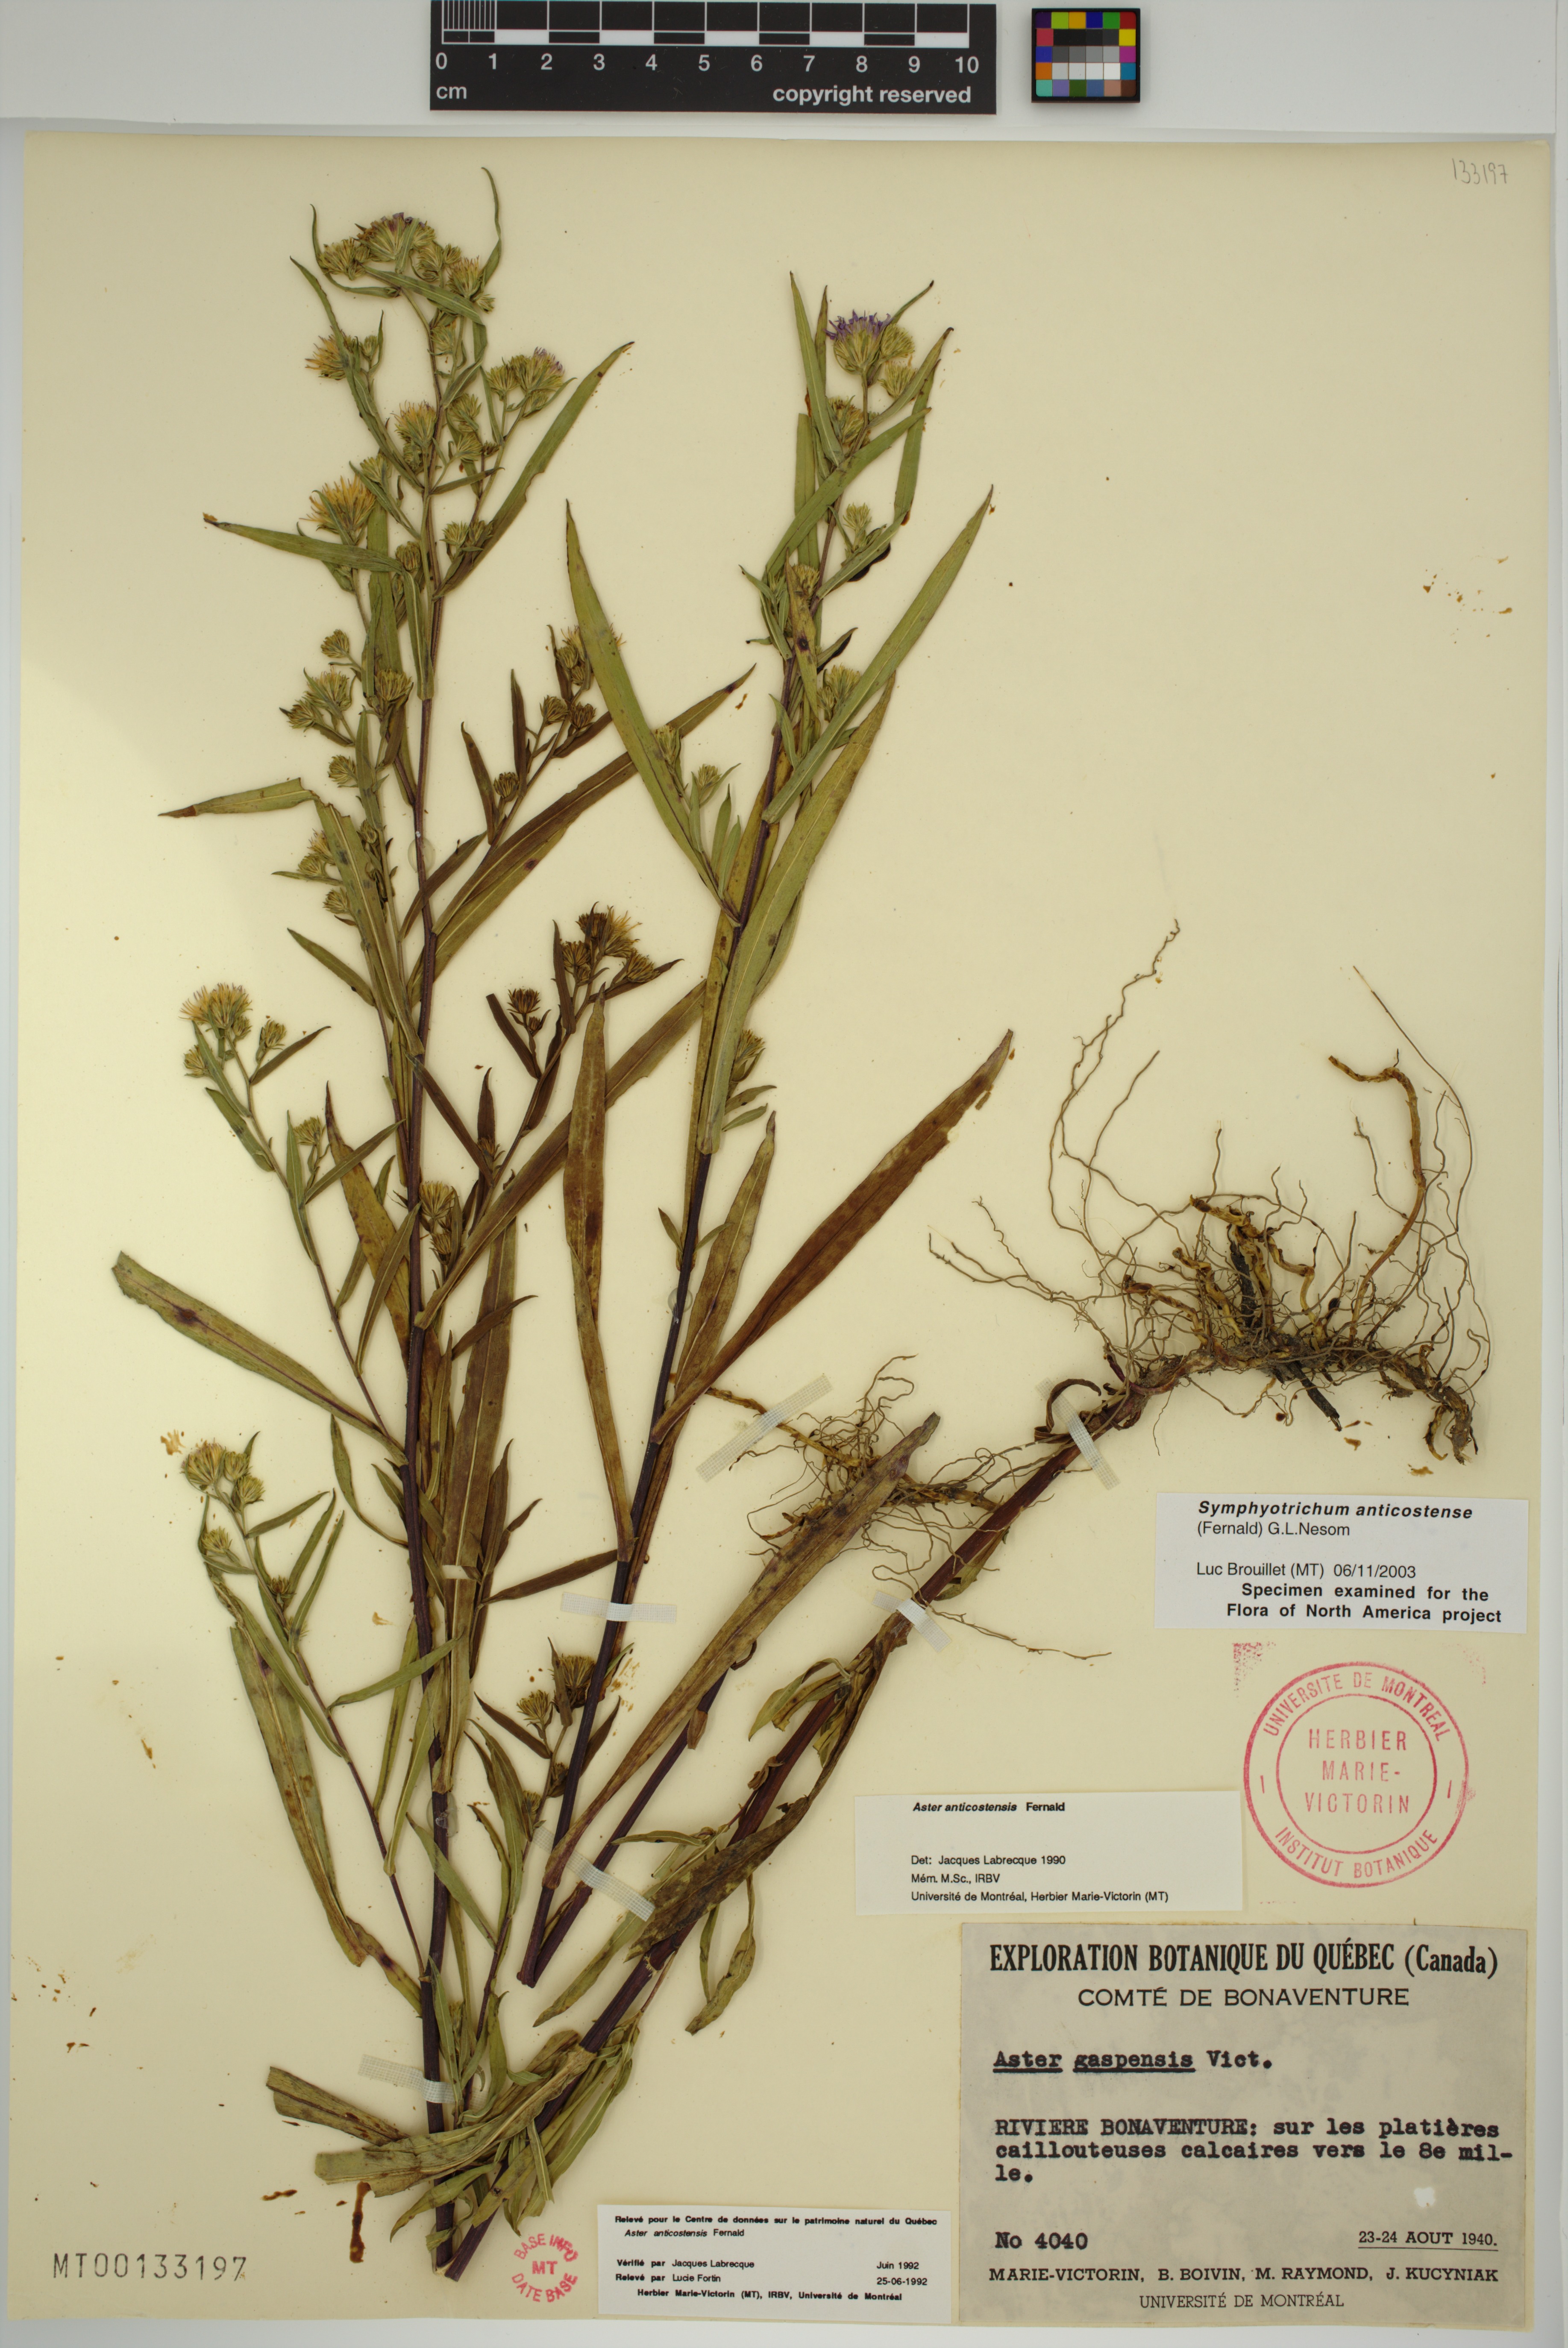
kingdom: Plantae
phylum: Tracheophyta
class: Magnoliopsida
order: Asterales
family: Asteraceae
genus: Symphyotrichum
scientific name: Symphyotrichum anticostense
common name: Anticosti island aster
